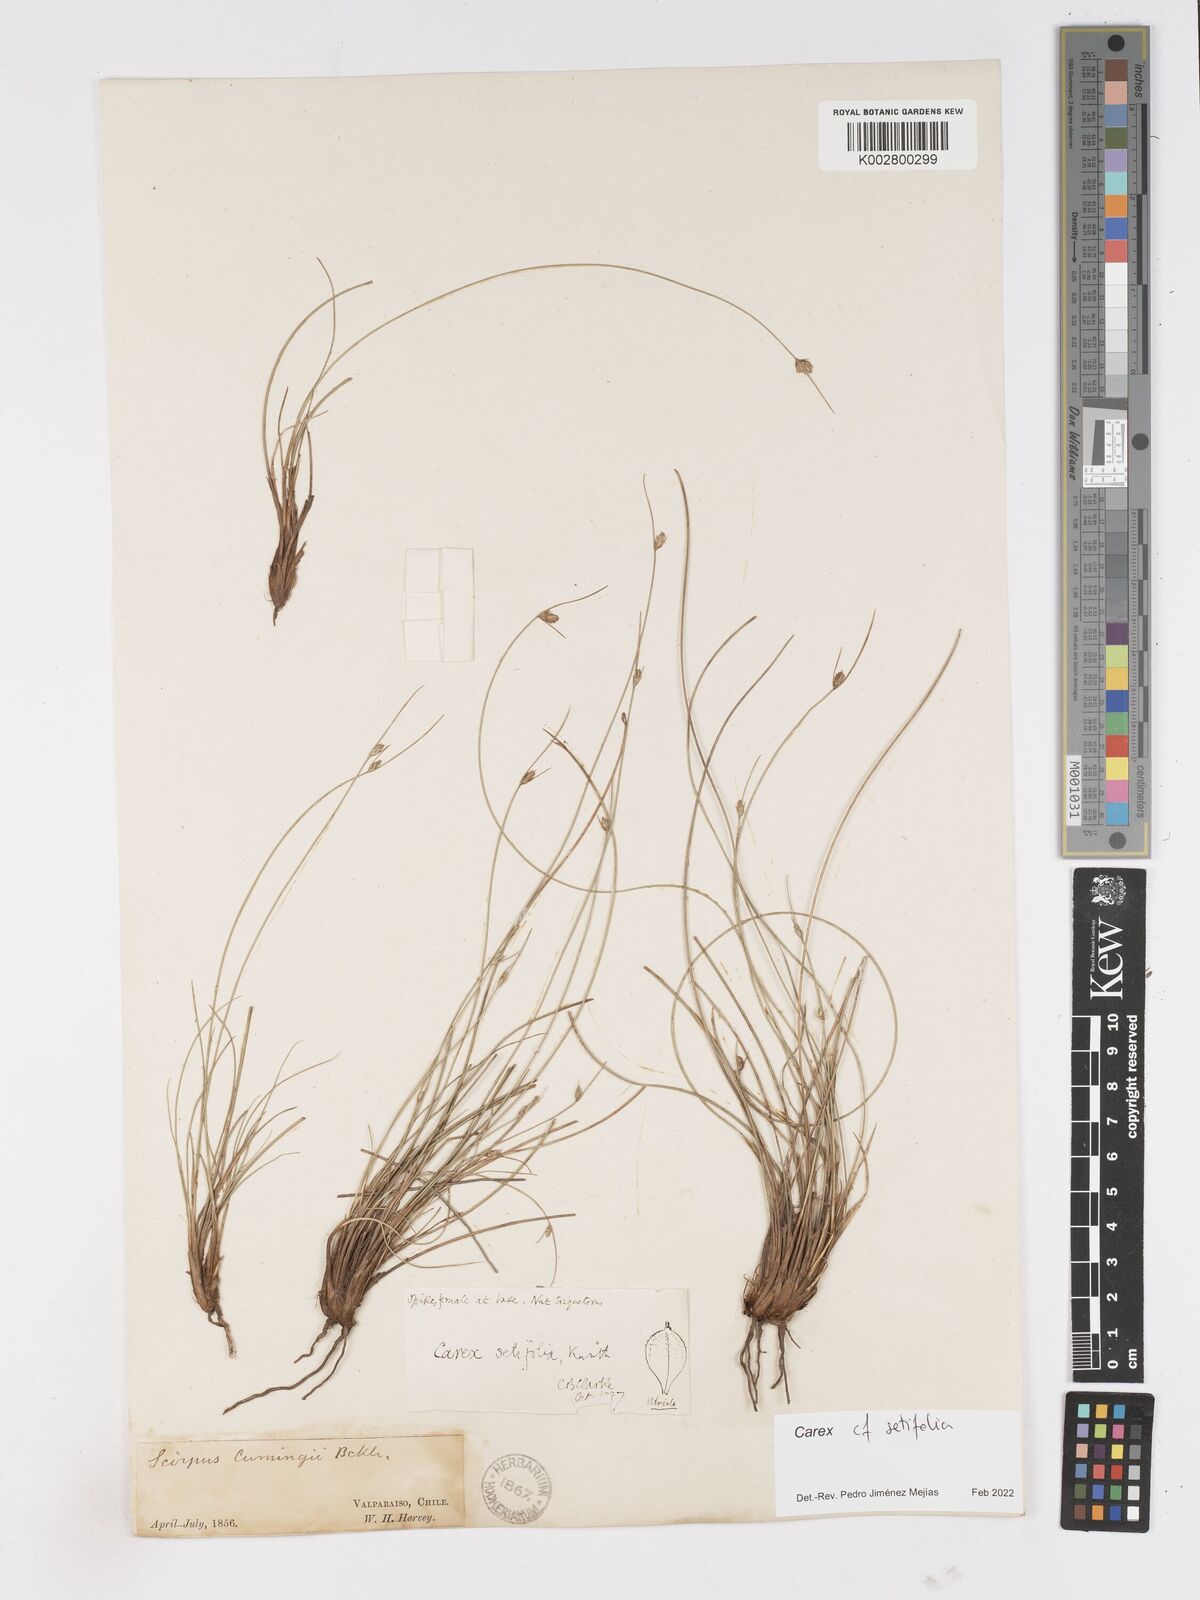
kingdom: Plantae
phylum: Tracheophyta
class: Liliopsida
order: Poales
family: Cyperaceae
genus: Carex
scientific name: Carex setifolia
